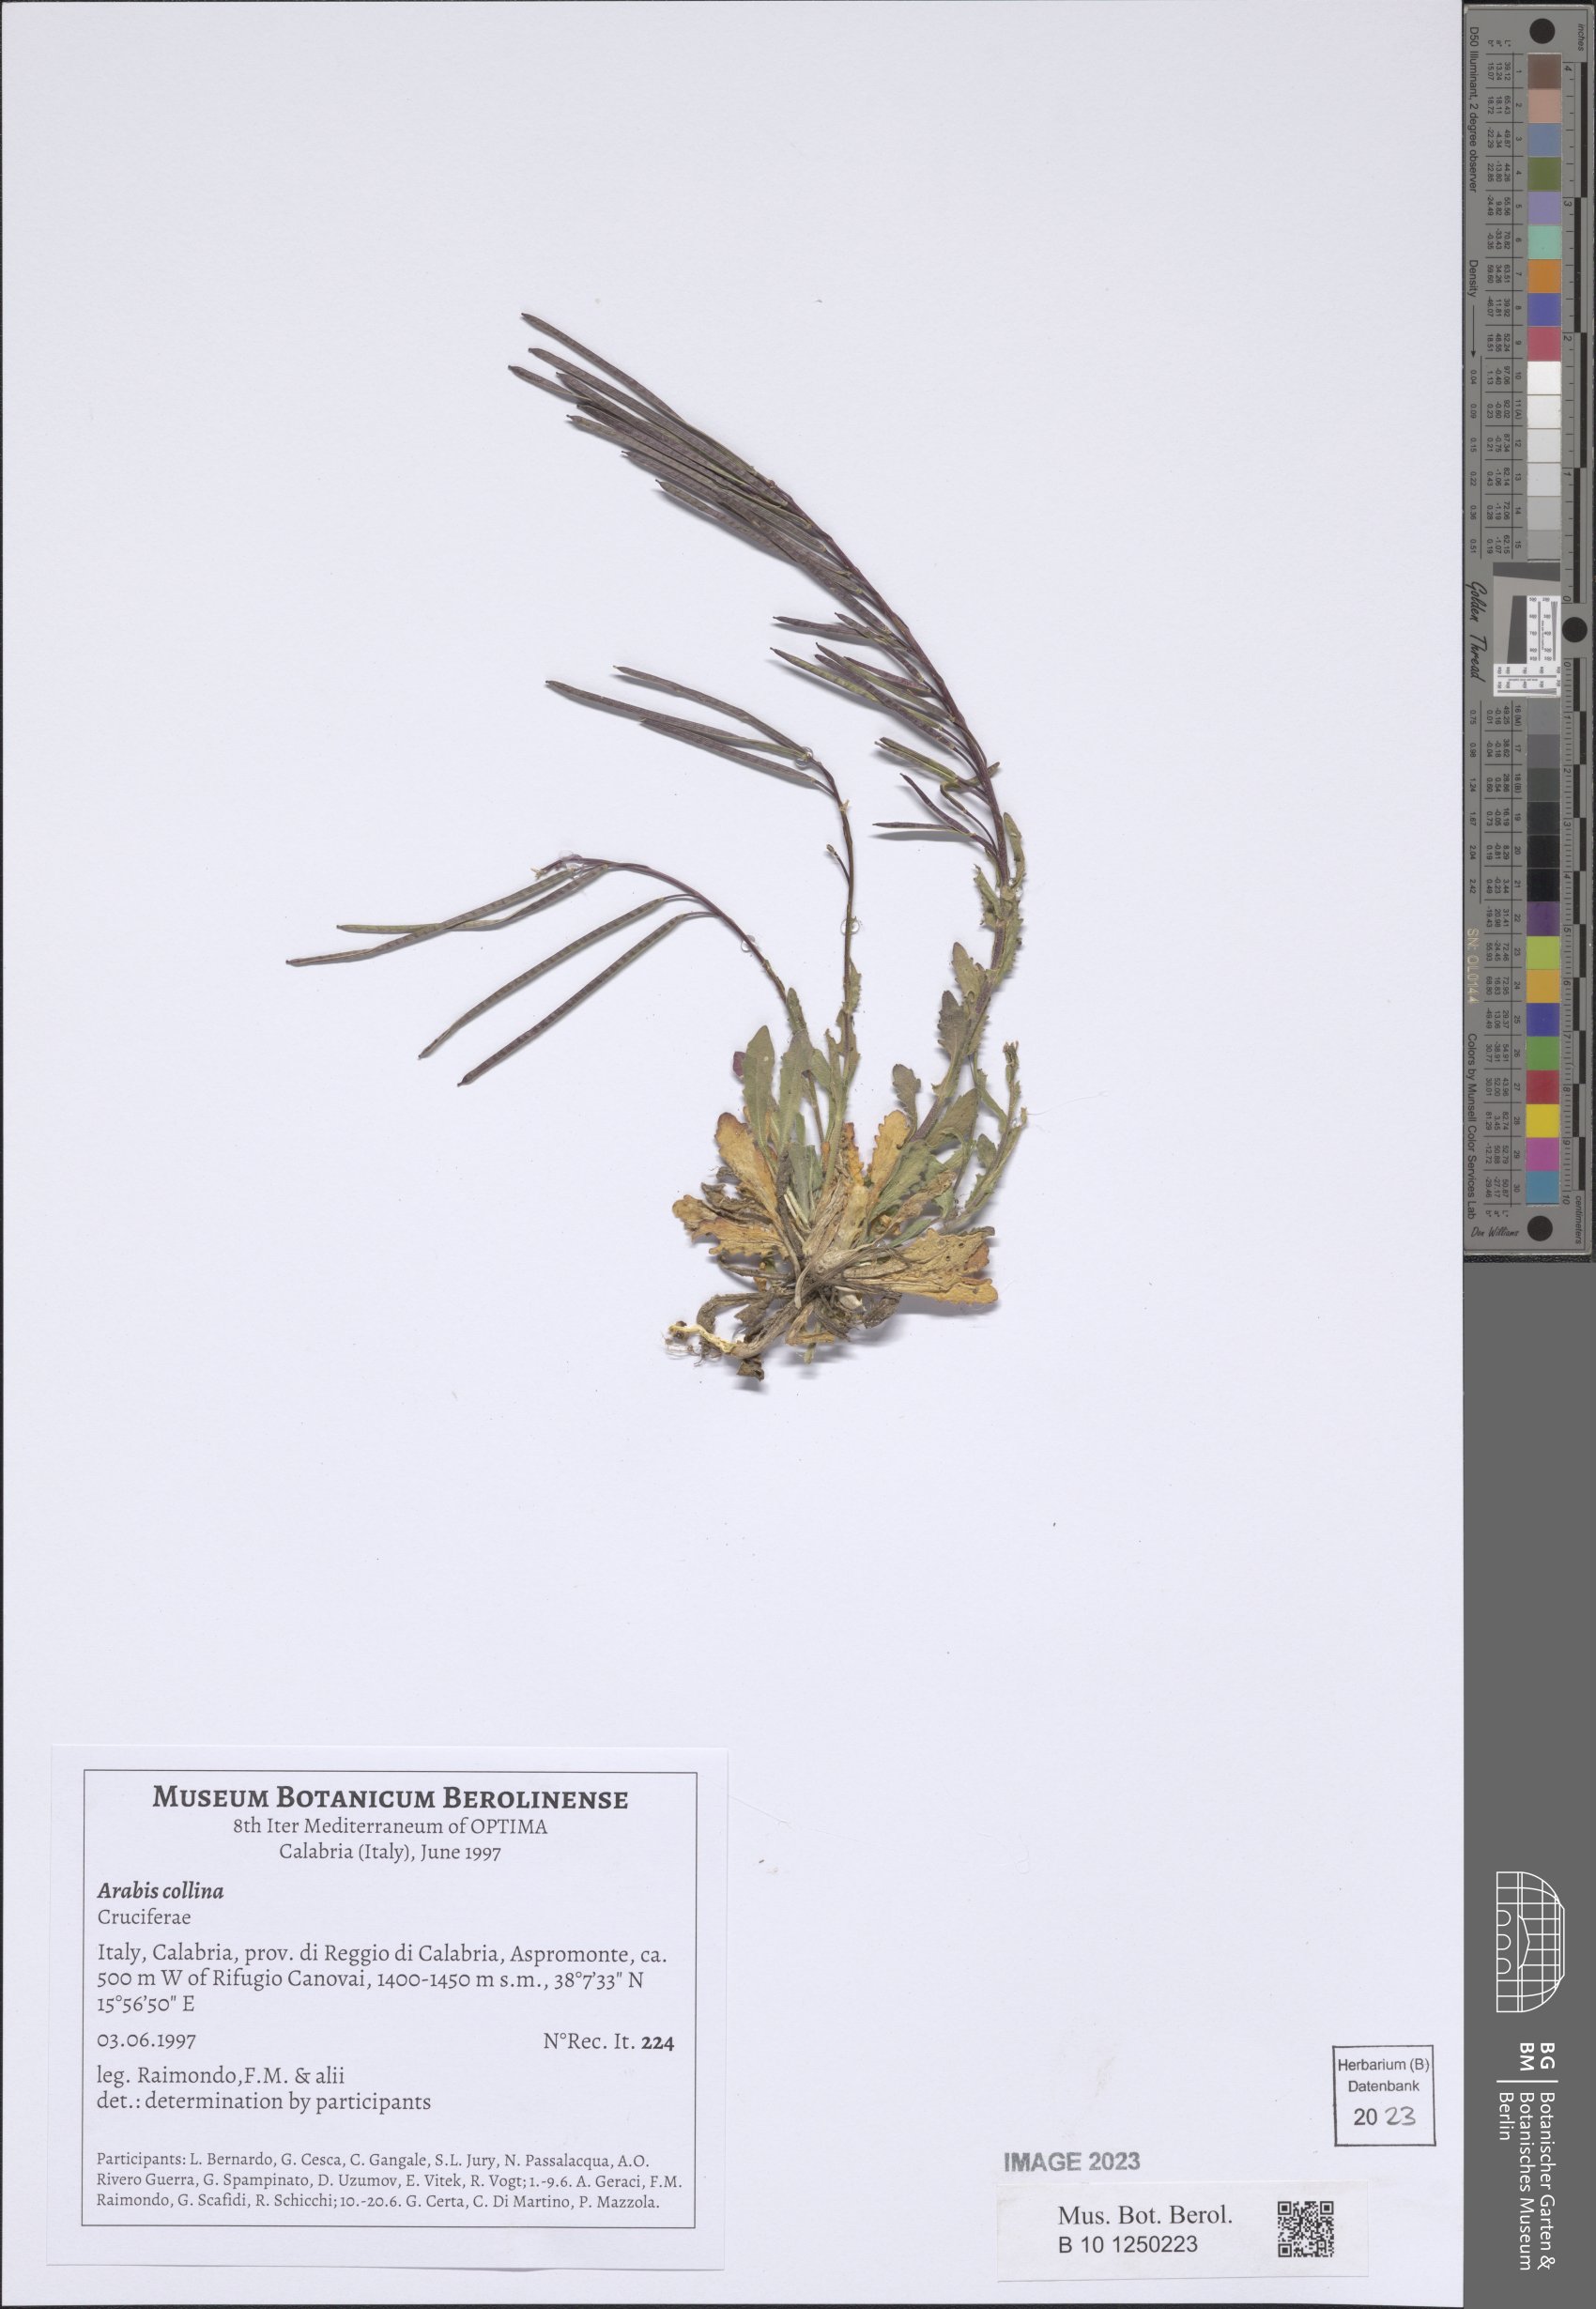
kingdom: Plantae
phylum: Tracheophyta
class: Magnoliopsida
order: Brassicales
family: Brassicaceae
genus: Arabis
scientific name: Arabis collina
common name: Rosy cress
